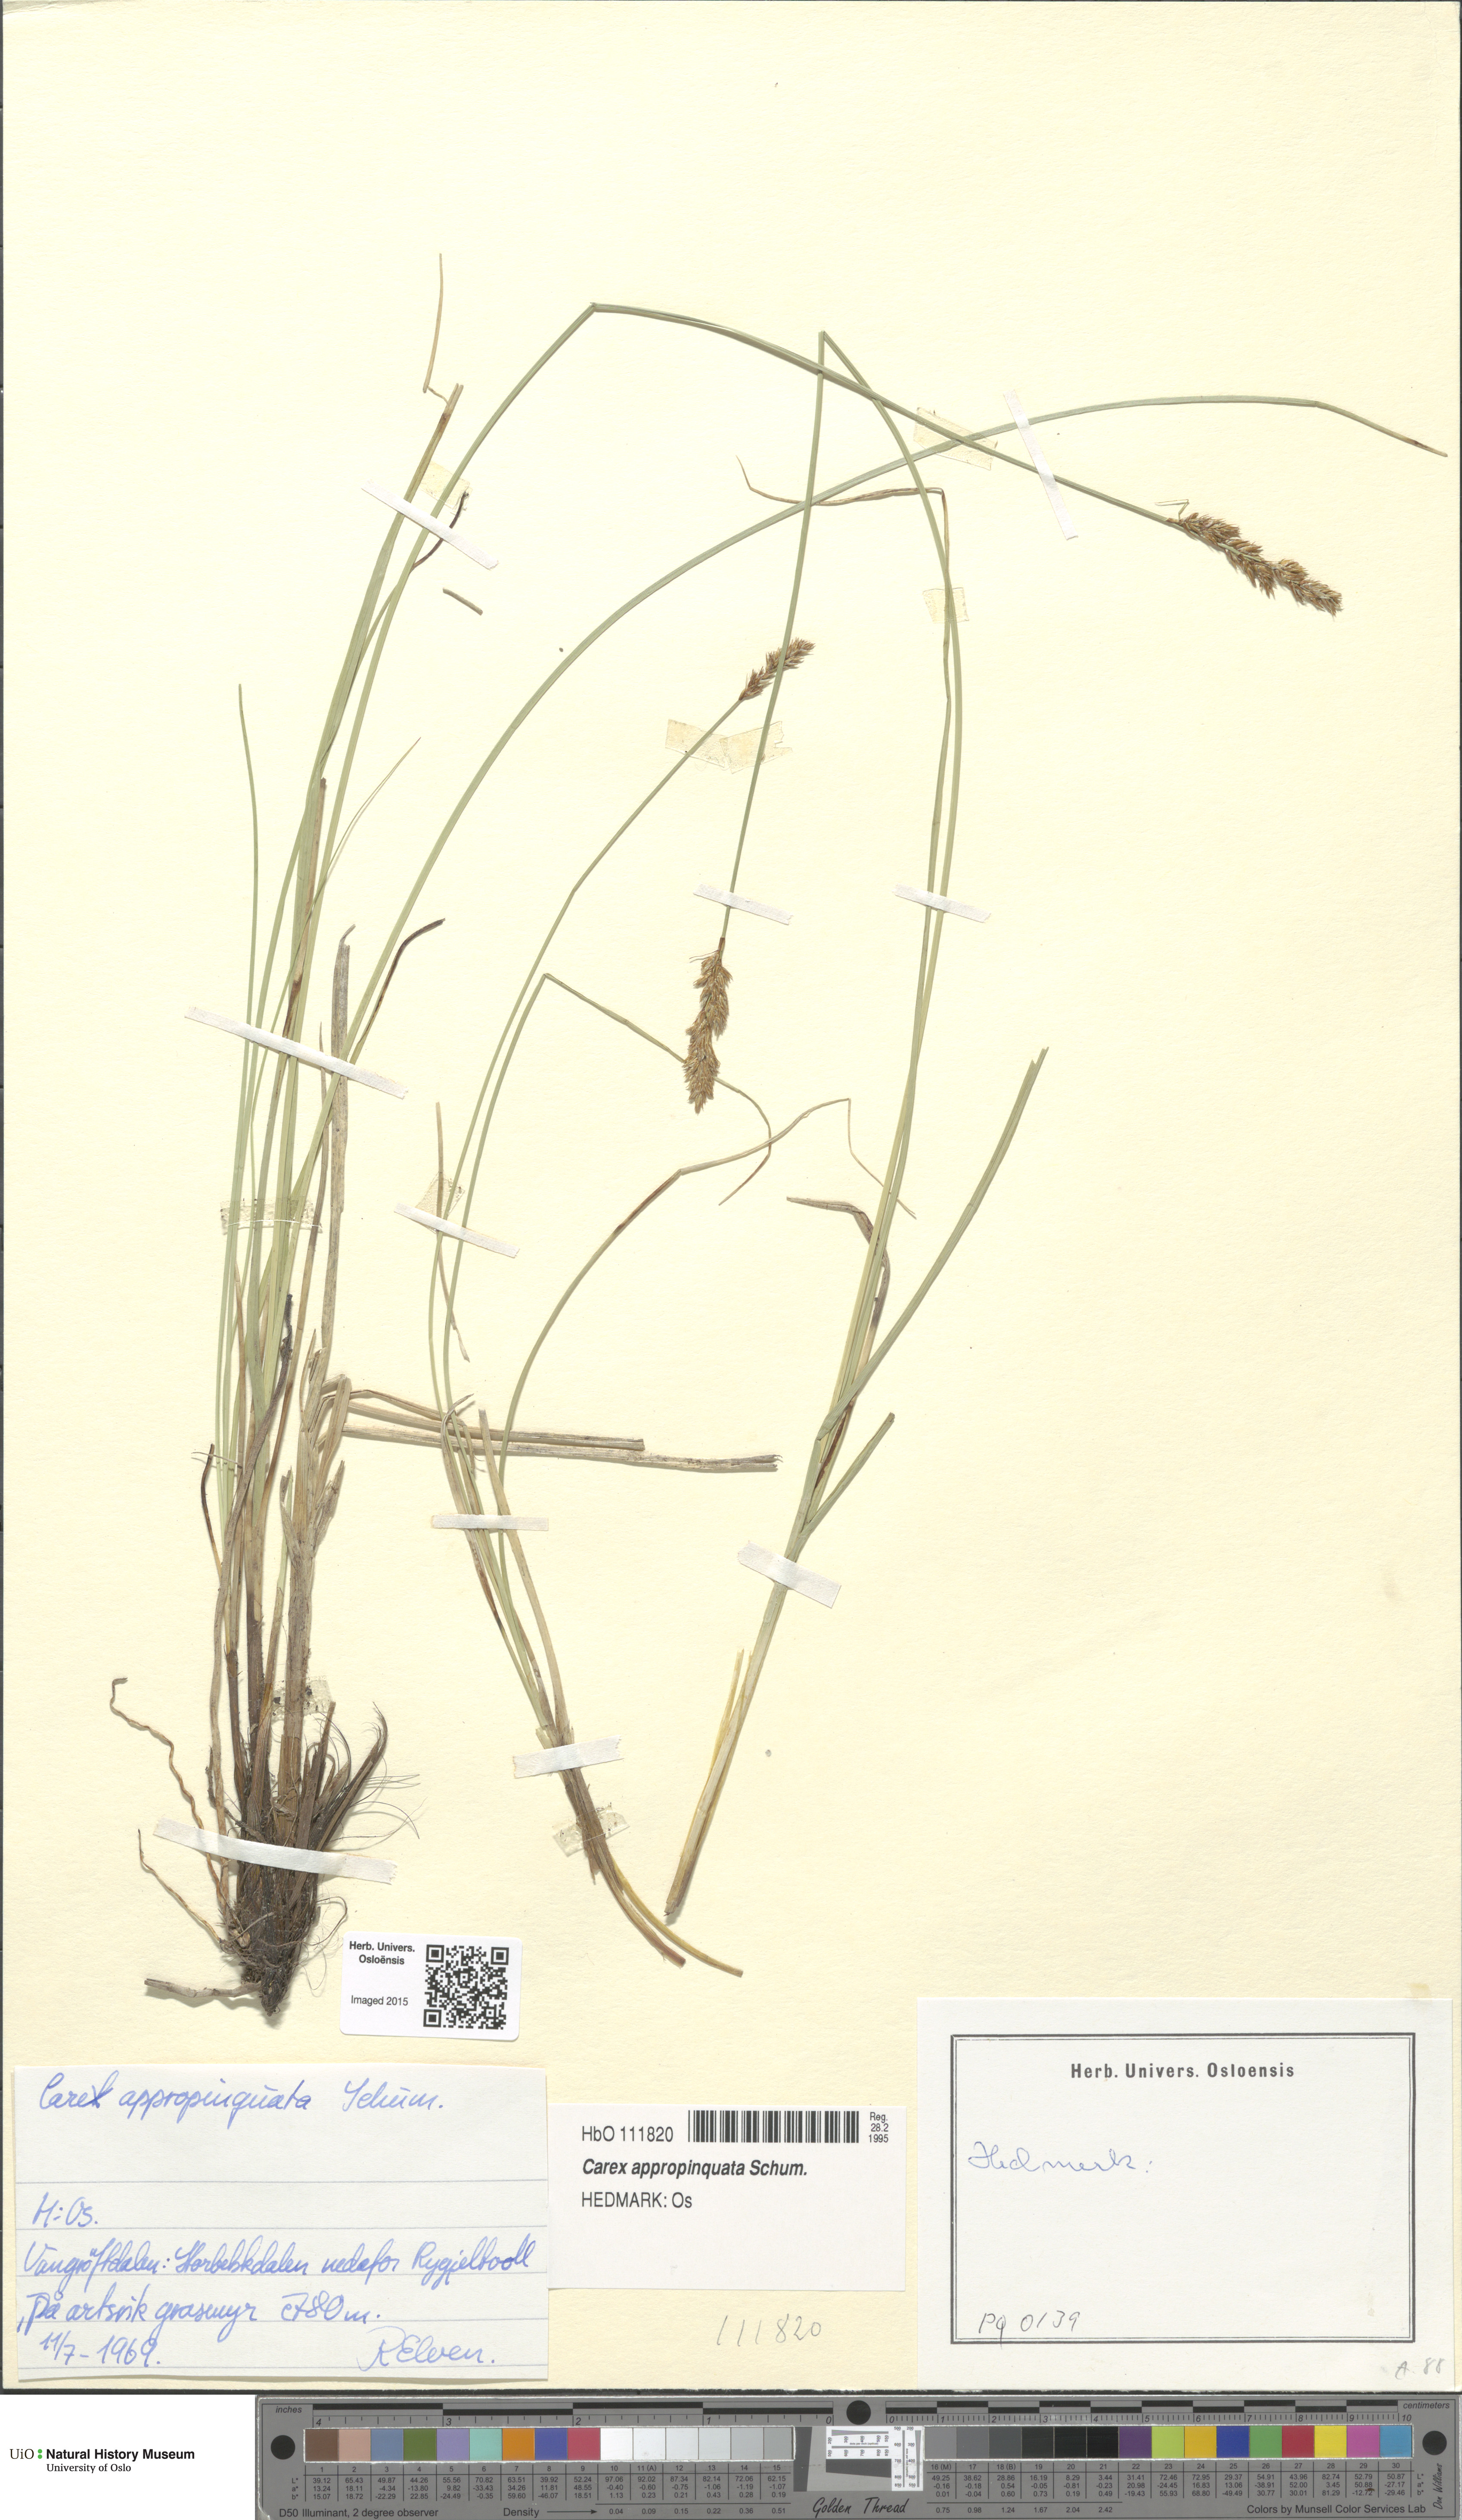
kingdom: Plantae
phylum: Tracheophyta
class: Liliopsida
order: Poales
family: Cyperaceae
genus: Carex
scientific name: Carex appropinquata
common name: Fibrous tussock-sedge
